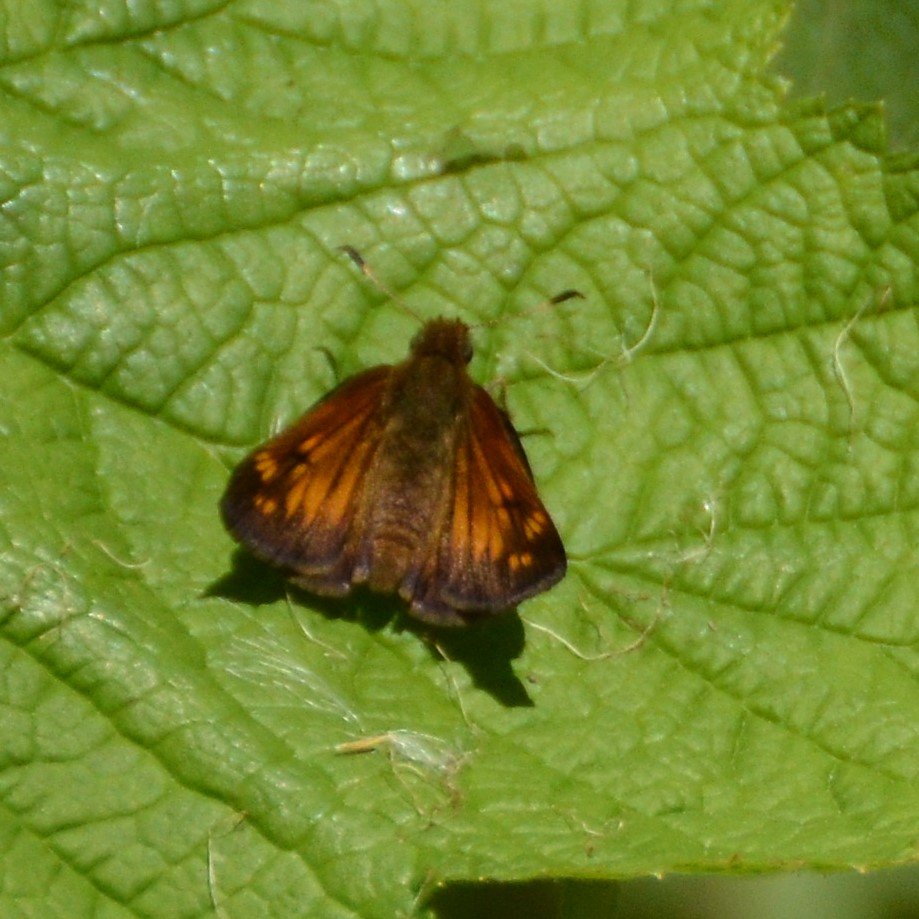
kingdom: Animalia
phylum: Arthropoda
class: Insecta
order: Lepidoptera
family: Hesperiidae
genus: Lon
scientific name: Lon hobomok
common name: Hobomok Skipper
